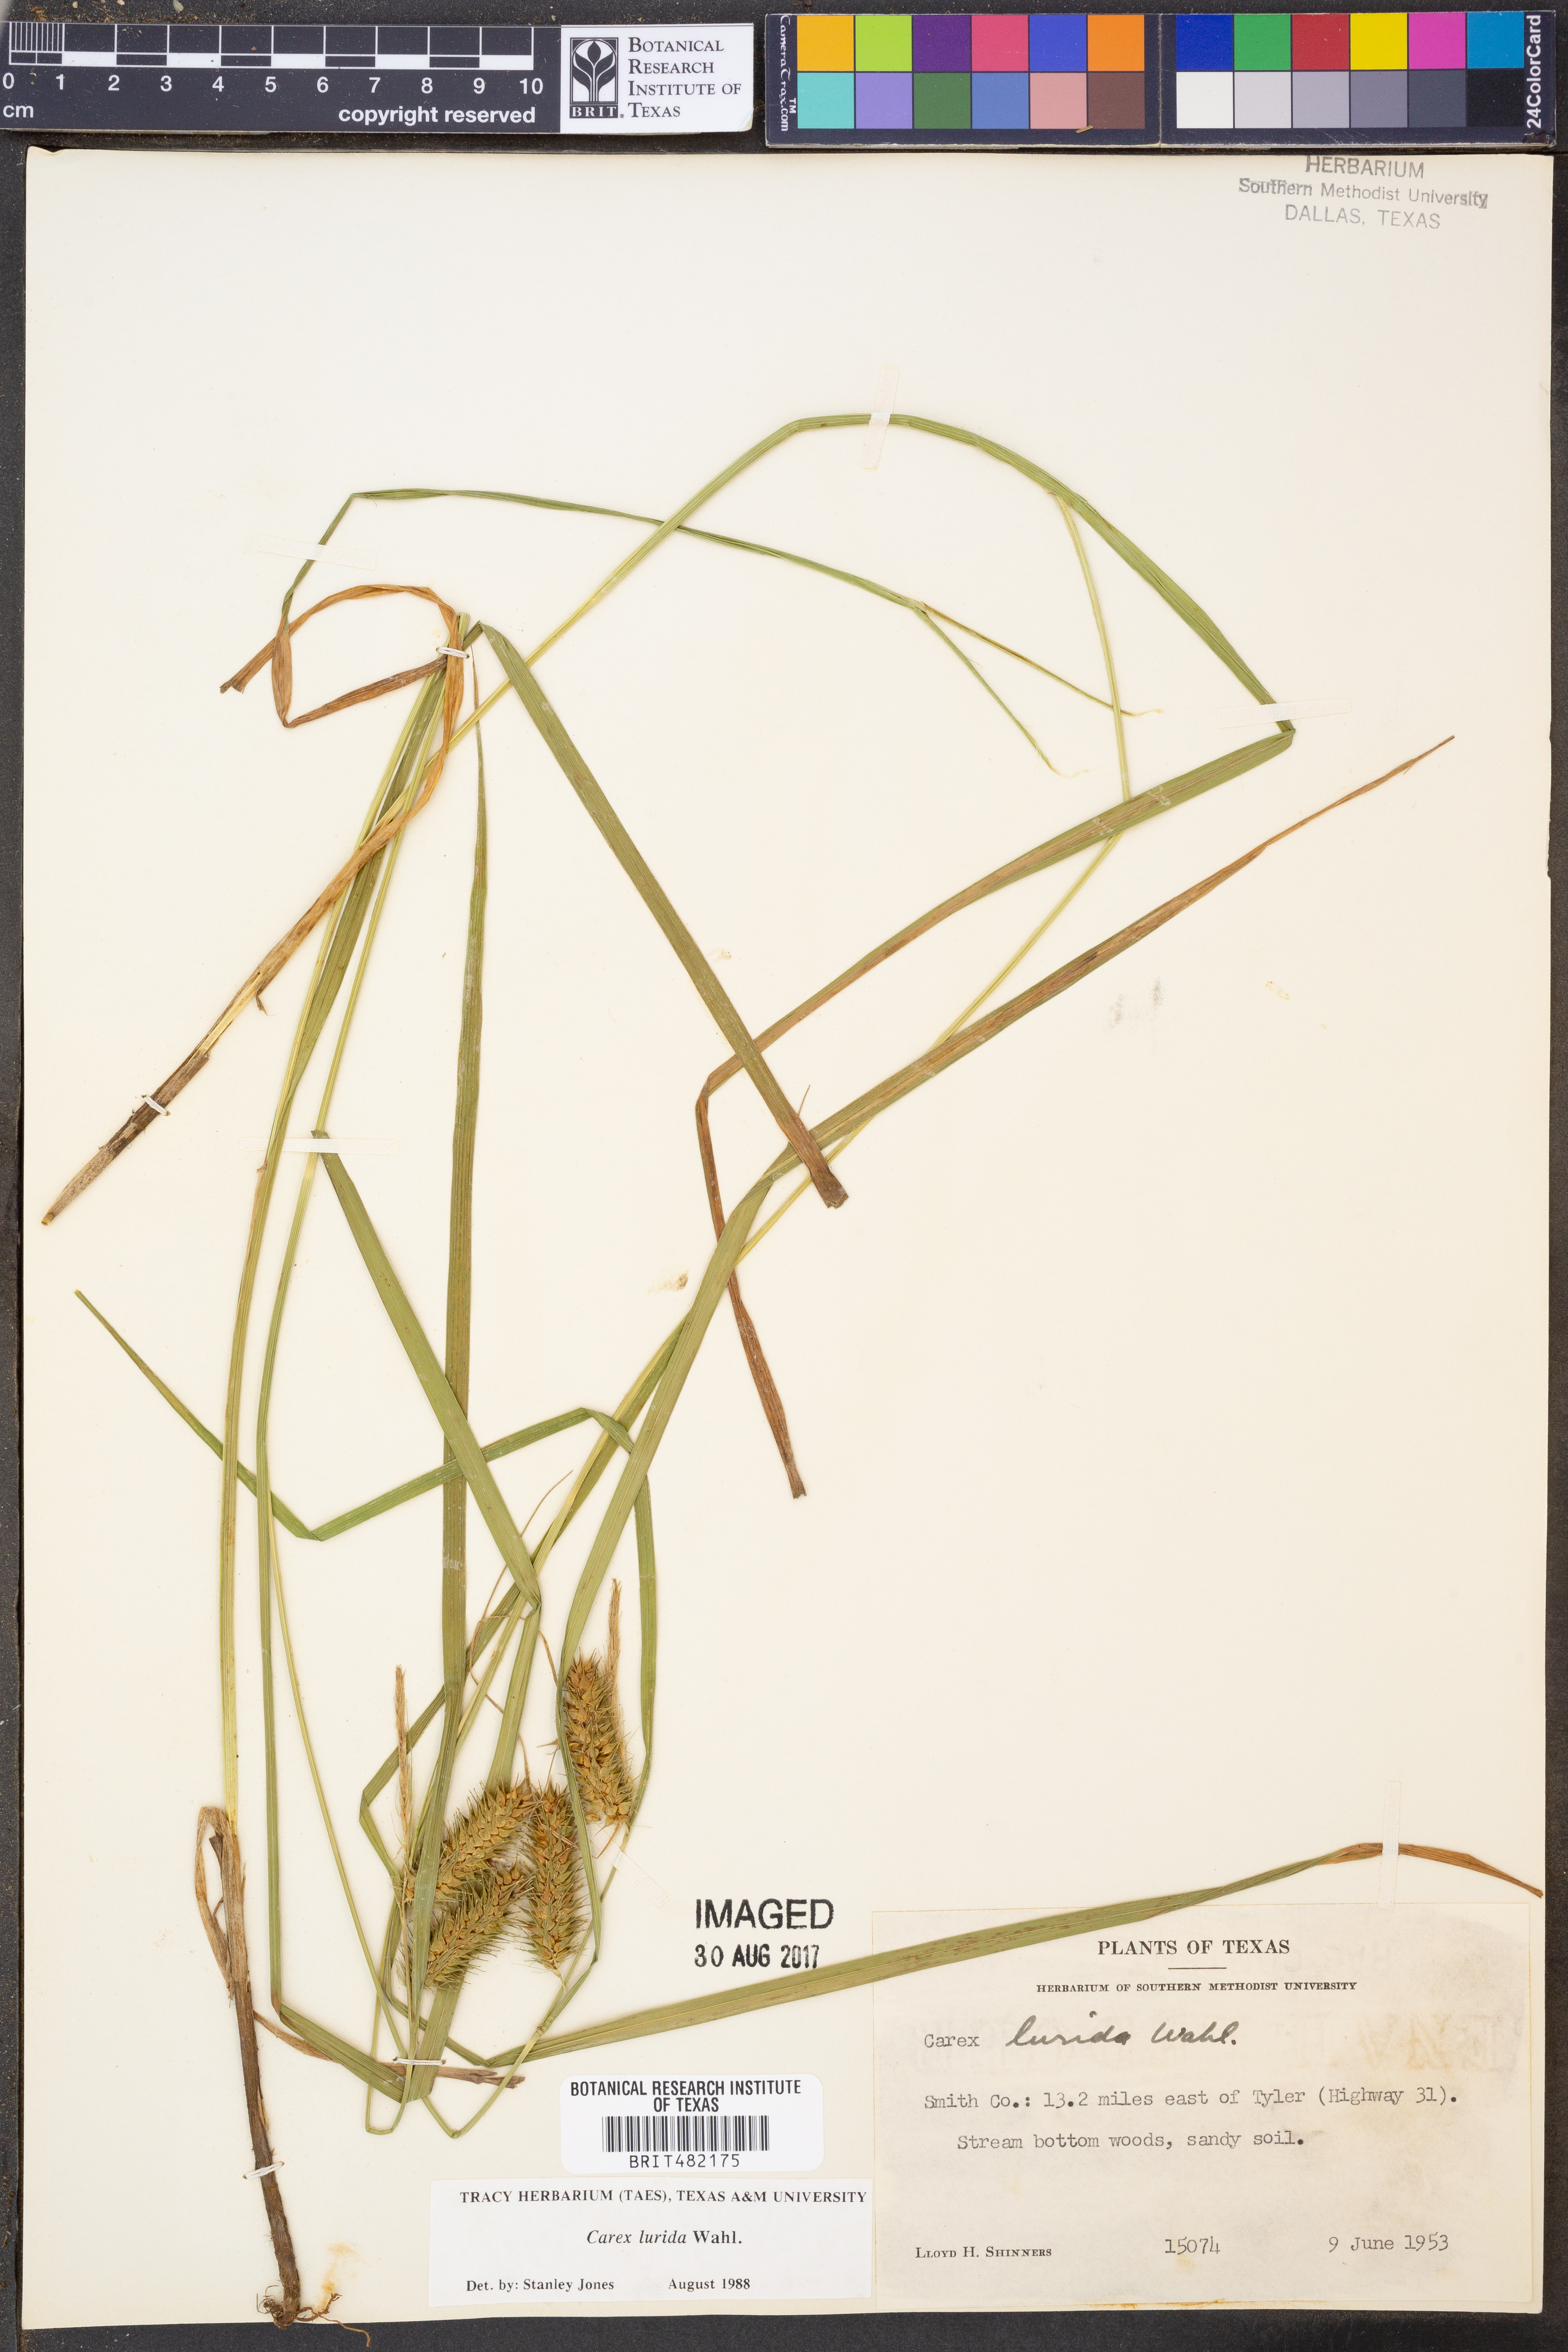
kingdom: Plantae
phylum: Tracheophyta
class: Liliopsida
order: Poales
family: Cyperaceae
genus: Carex
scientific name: Carex lurida
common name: Sallow sedge
